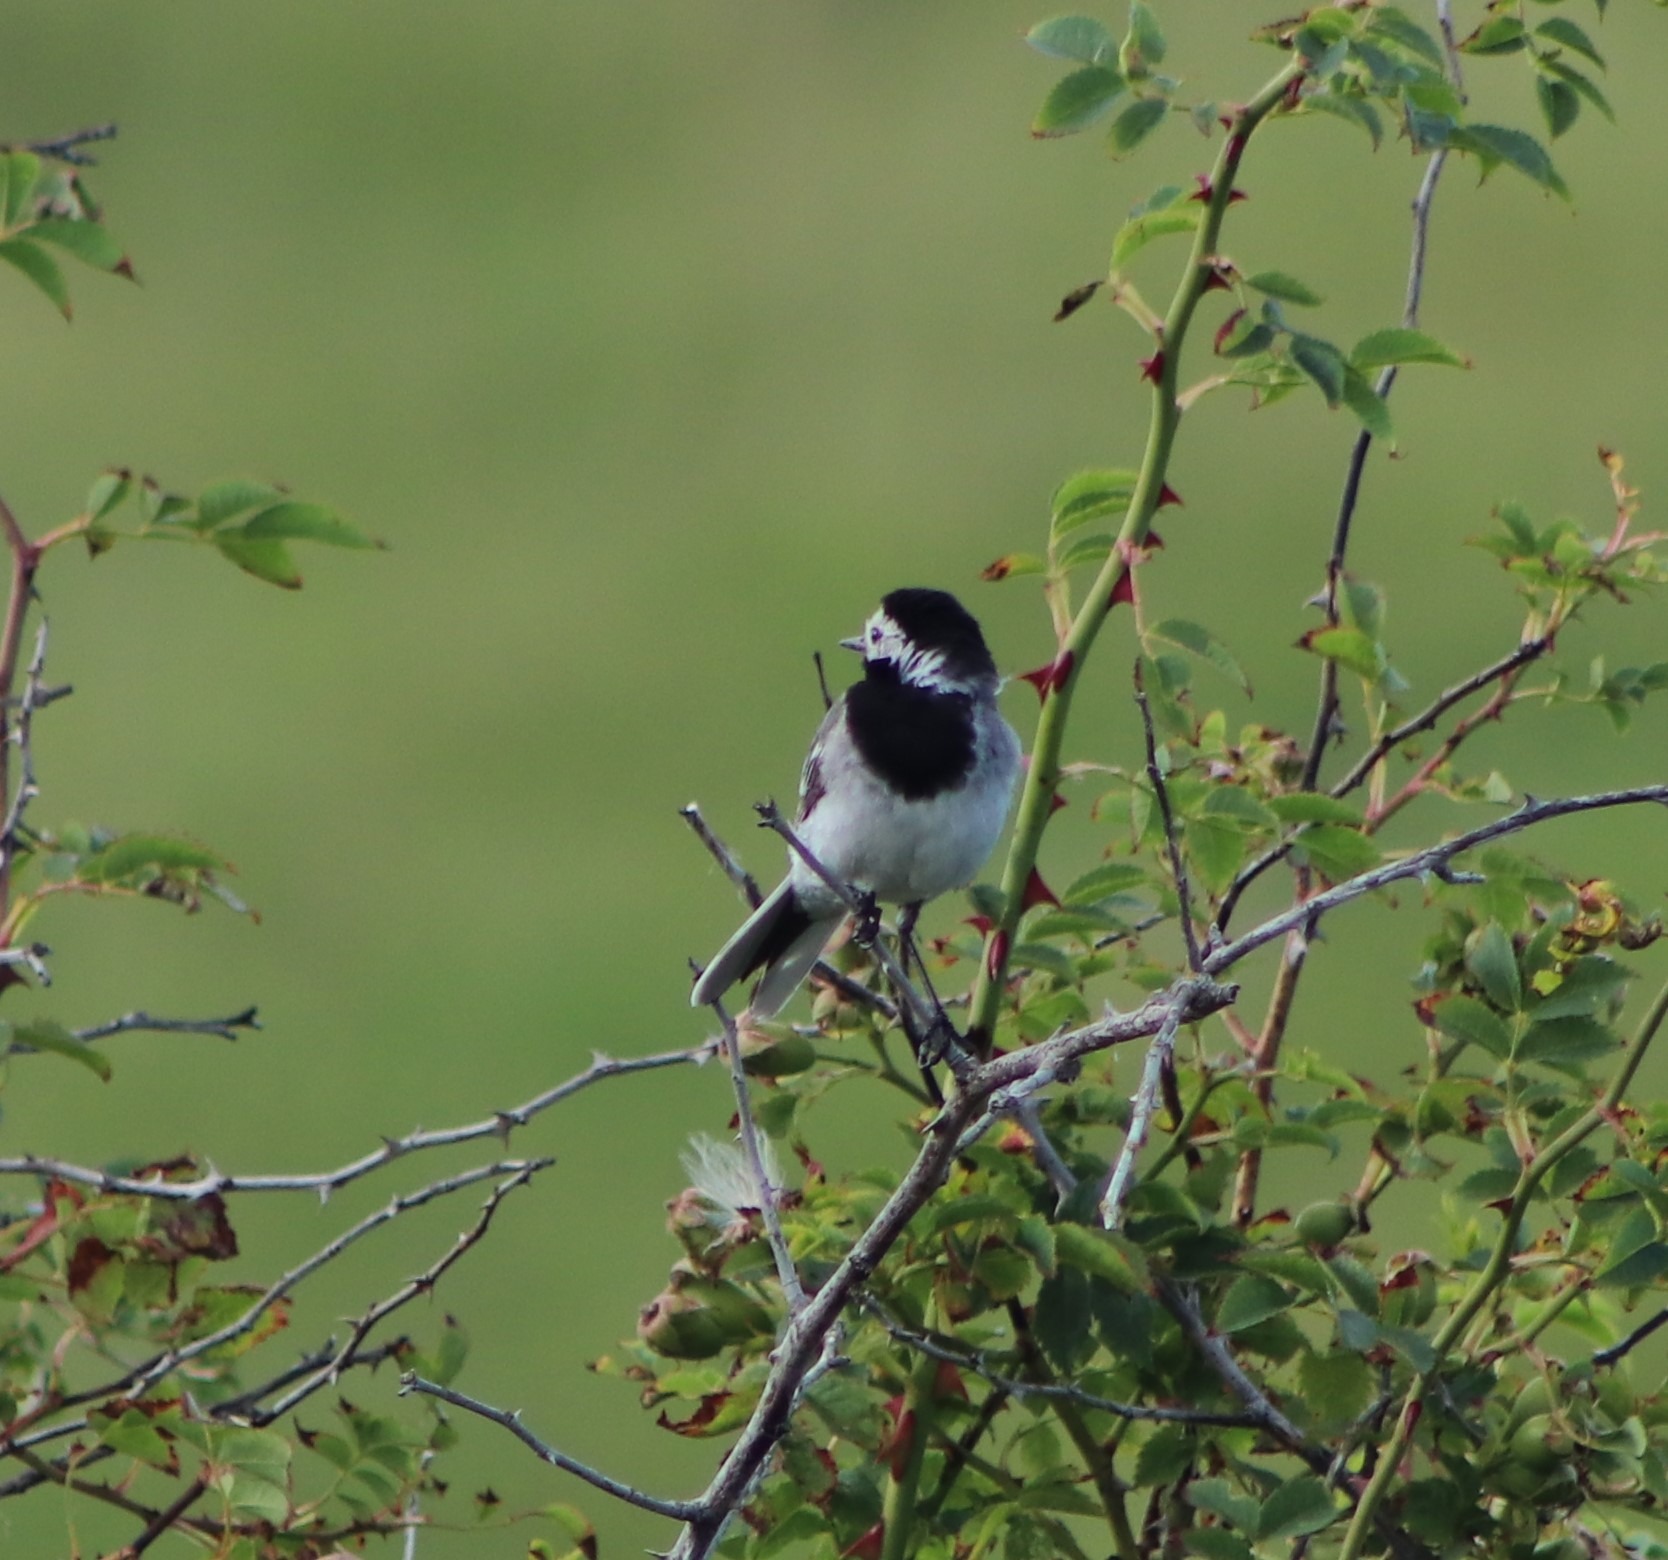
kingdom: Animalia
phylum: Chordata
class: Aves
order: Passeriformes
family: Motacillidae
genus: Motacilla
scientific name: Motacilla alba
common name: Hvid vipstjert
